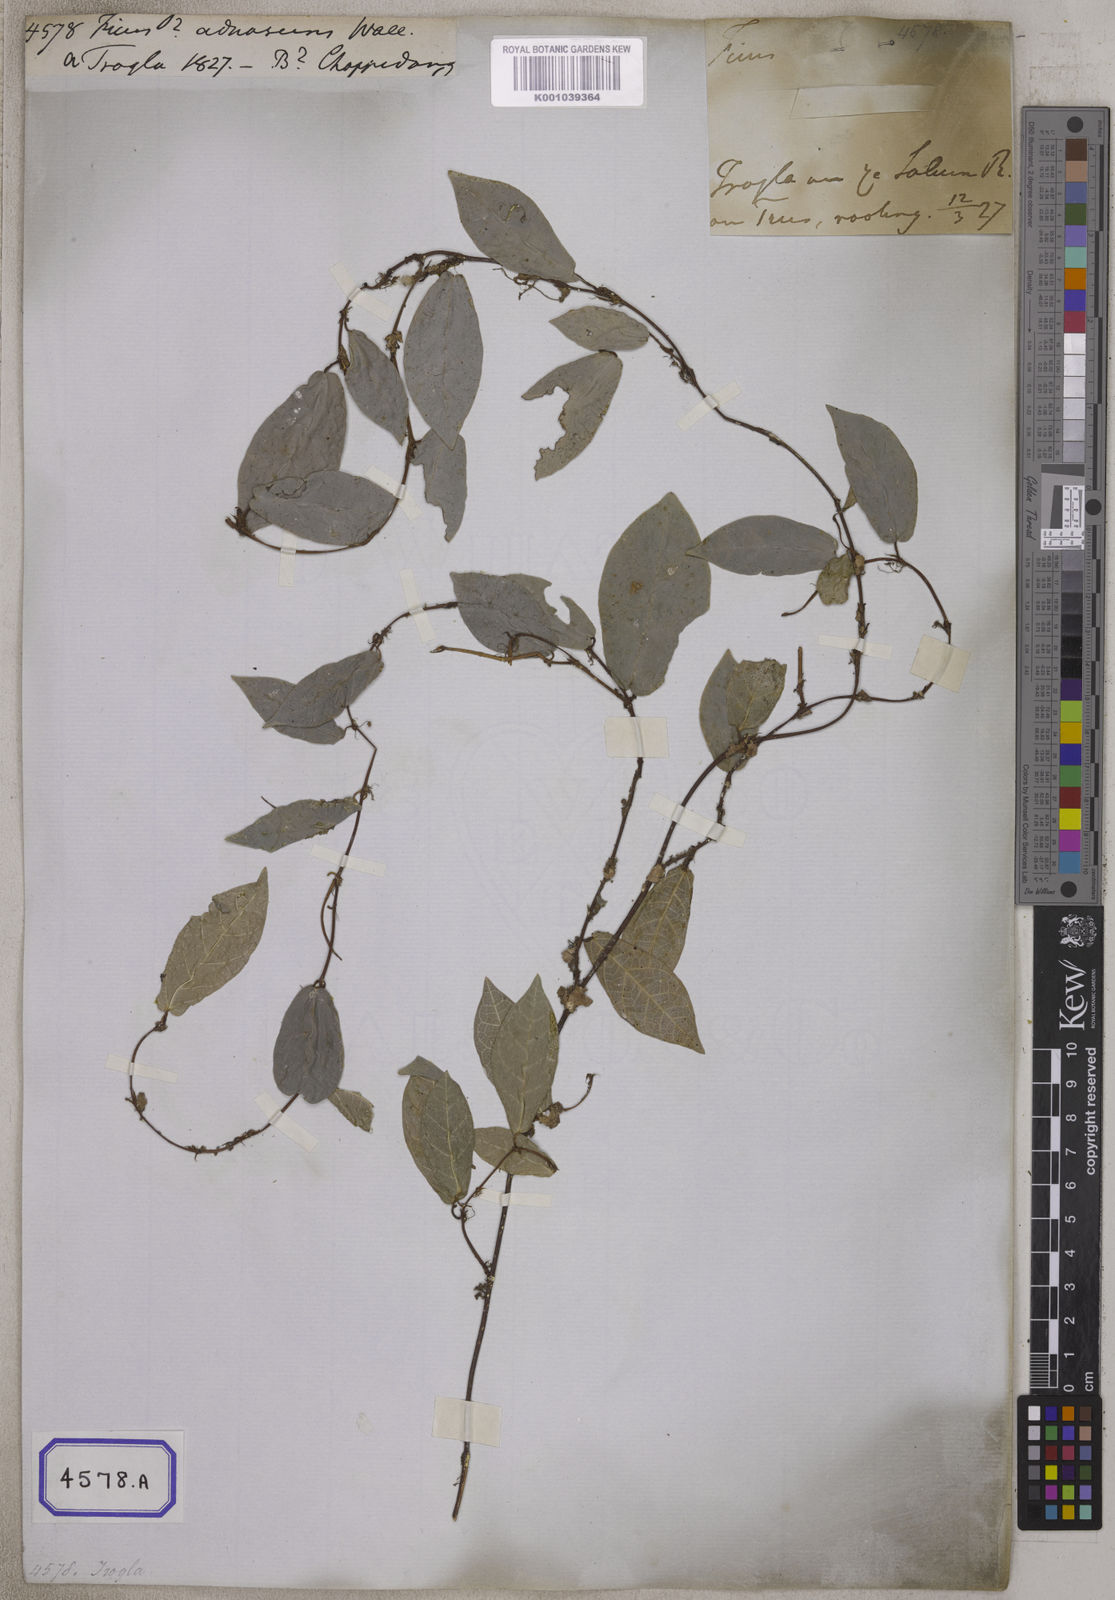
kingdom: Plantae
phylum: Tracheophyta
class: Magnoliopsida
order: Rosales
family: Moraceae
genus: Ficus
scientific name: Ficus
